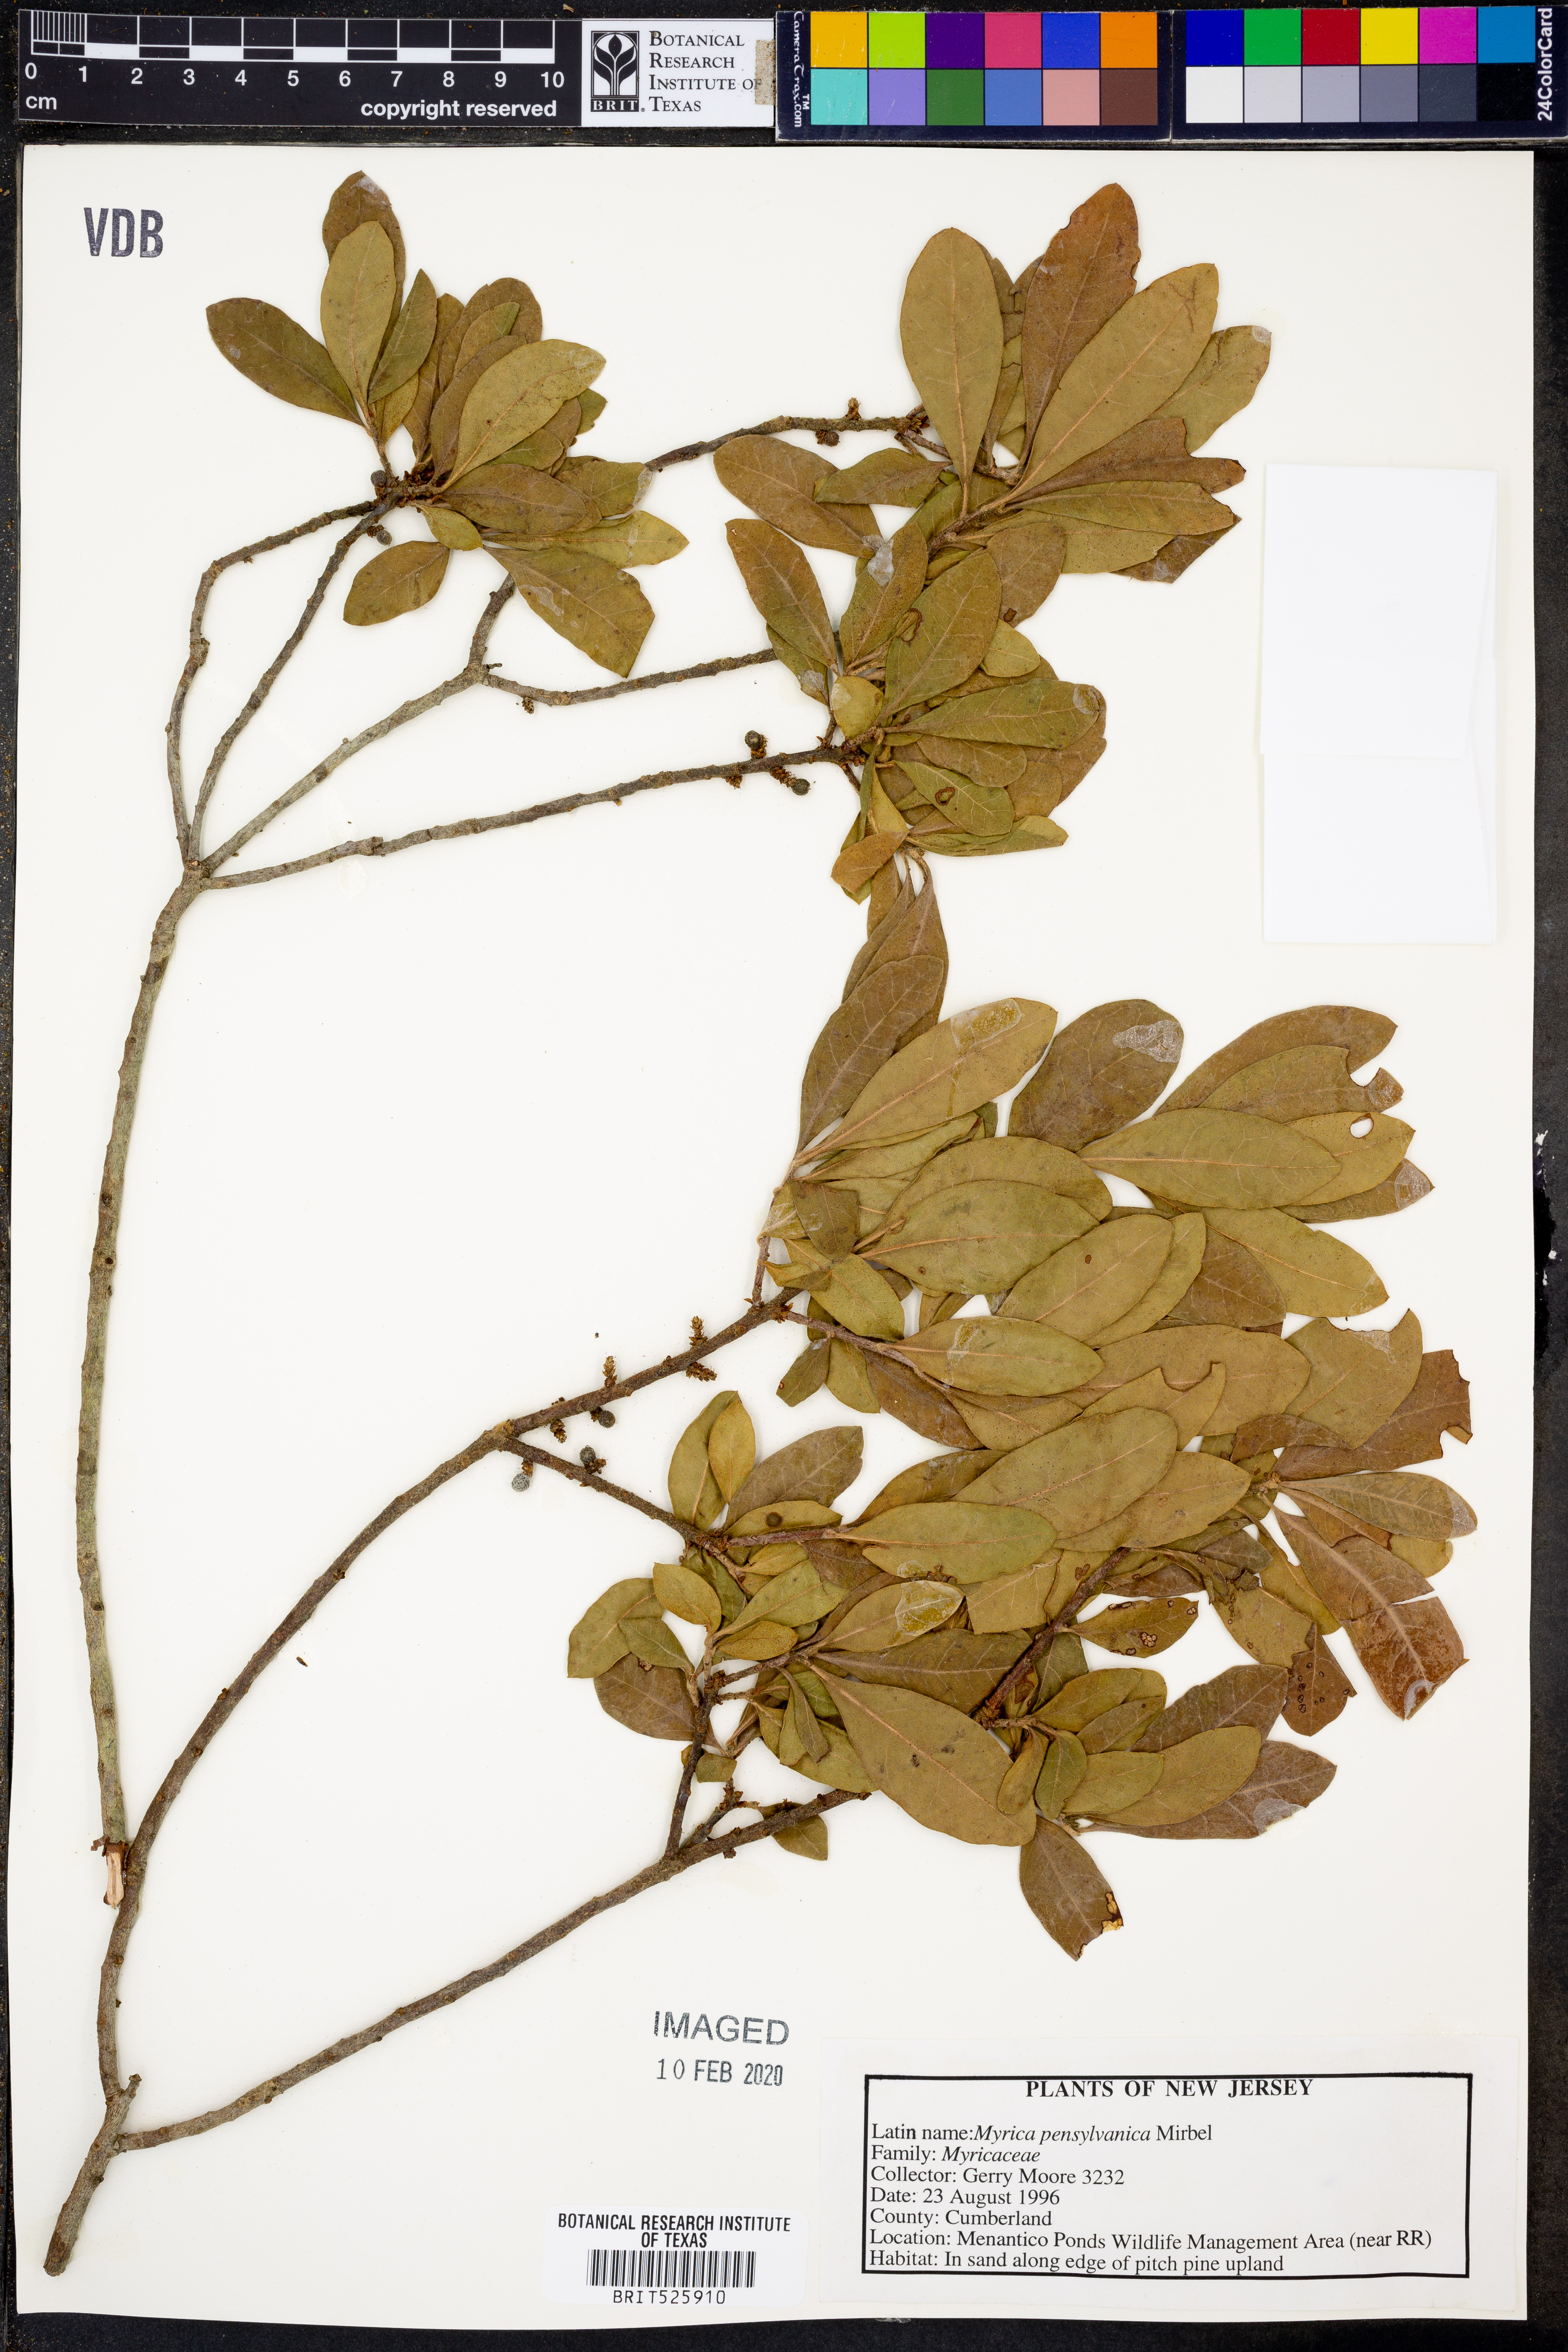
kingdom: Plantae
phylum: Tracheophyta
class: Magnoliopsida
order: Fagales
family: Myricaceae
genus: Morella
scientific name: Morella
